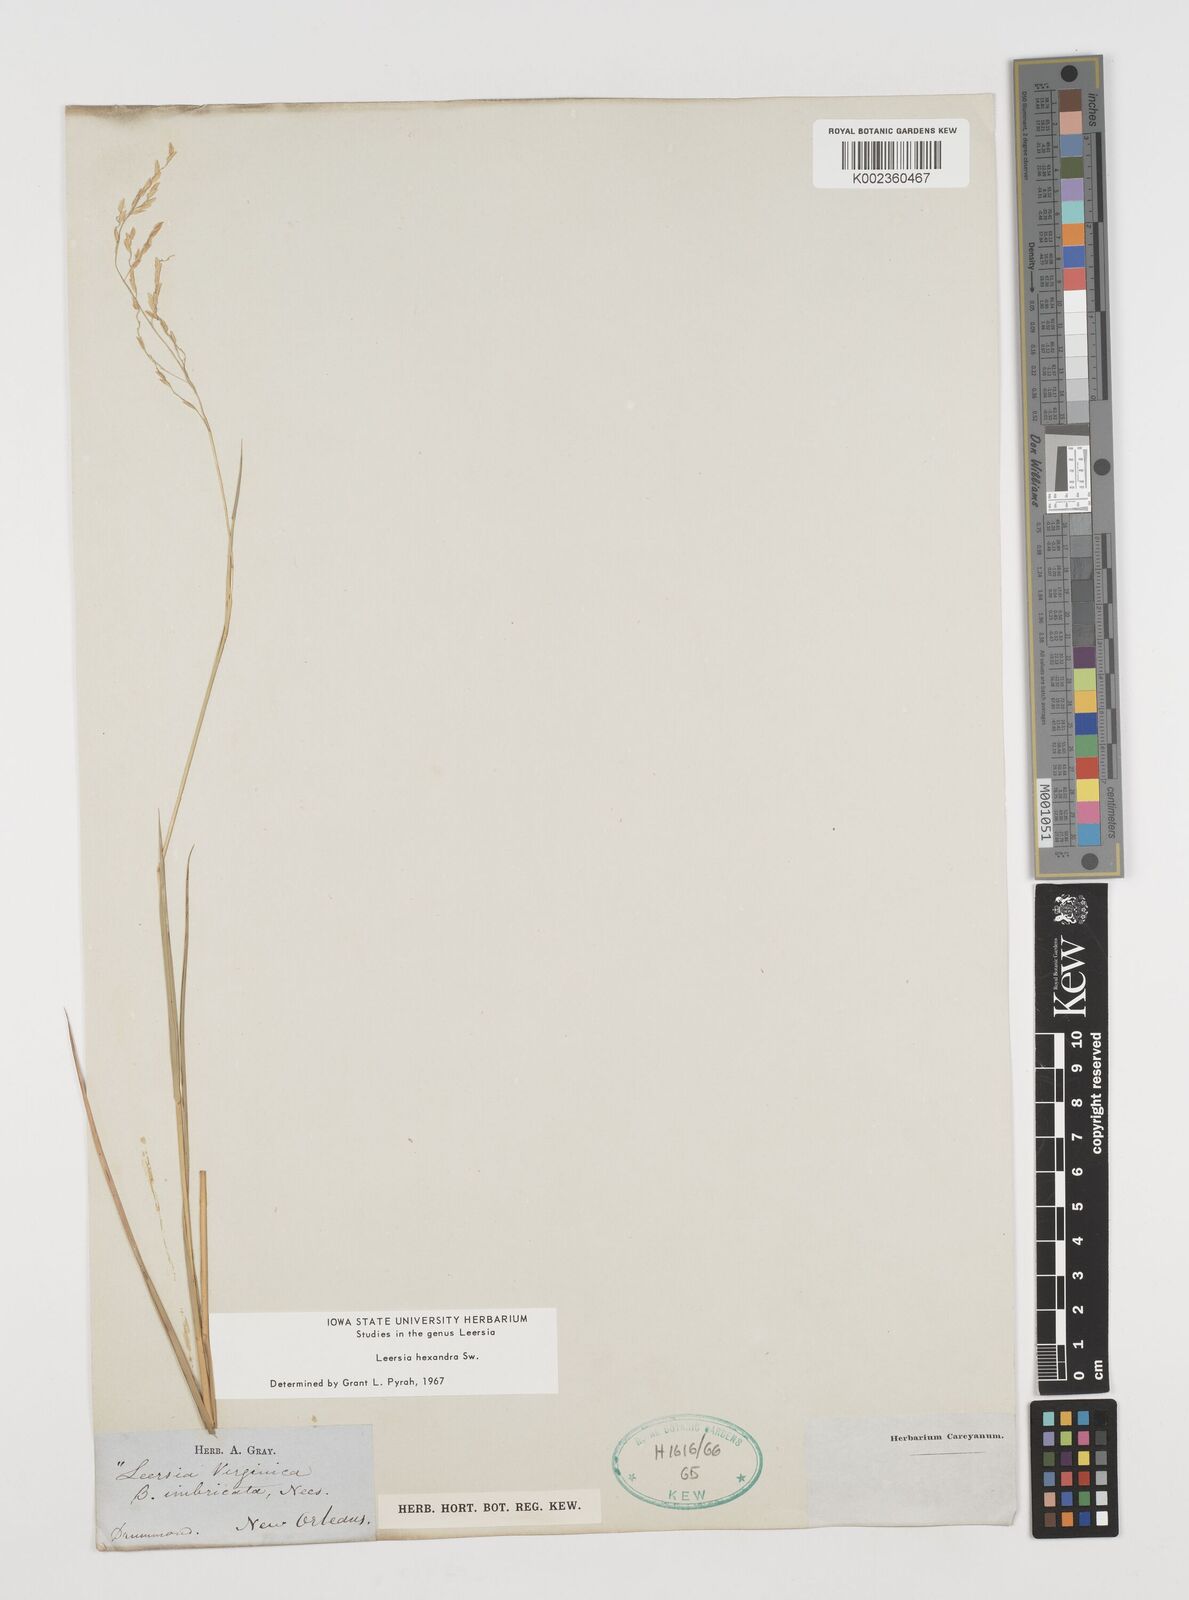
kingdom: Plantae
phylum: Tracheophyta
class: Liliopsida
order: Poales
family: Poaceae
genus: Leersia
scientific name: Leersia hexandra
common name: Southern cut grass
